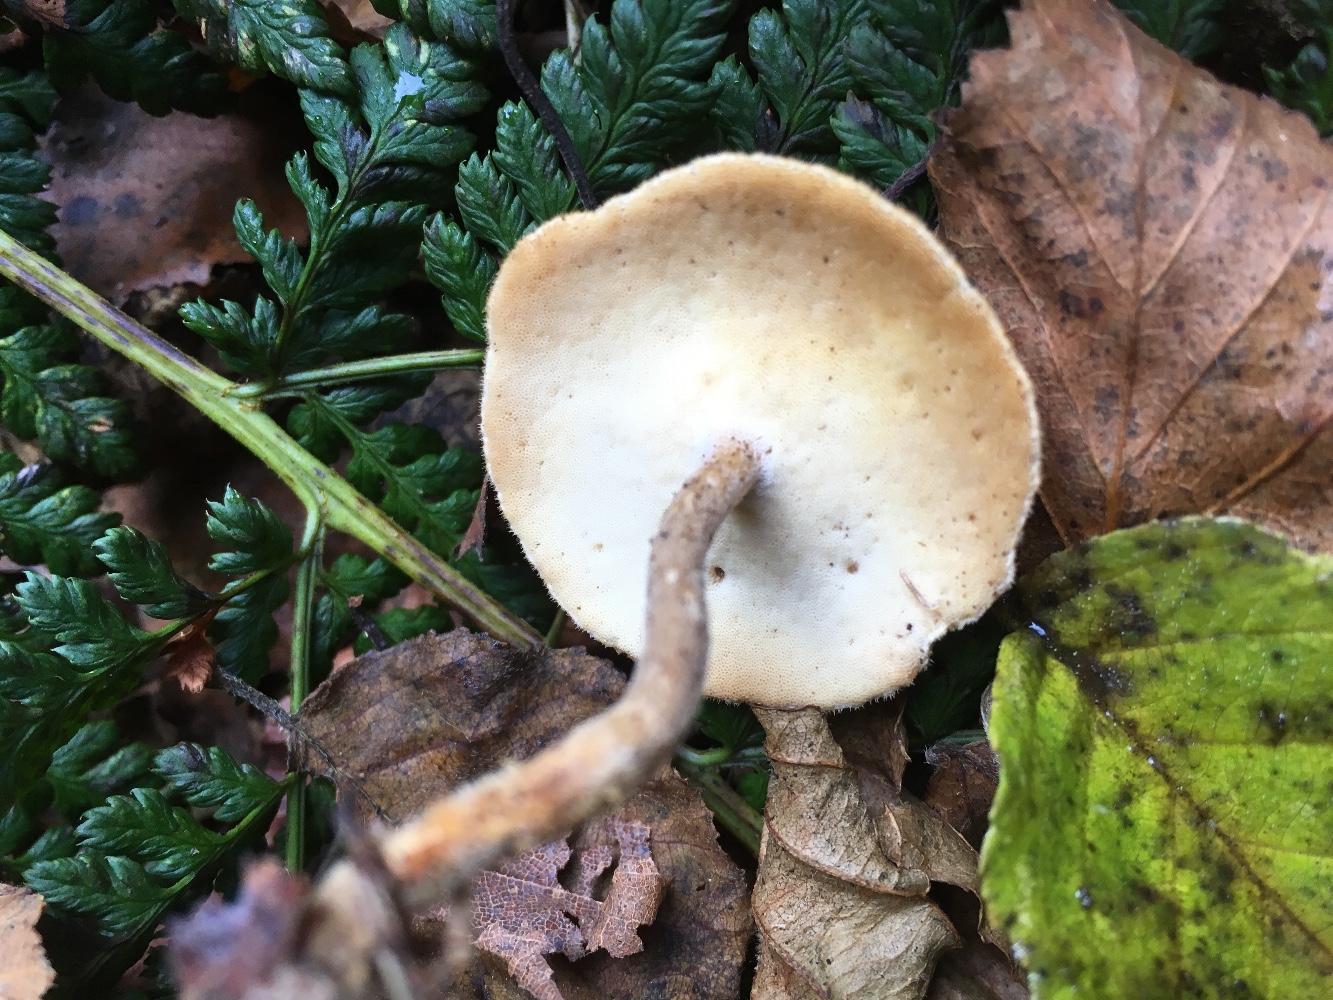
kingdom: Fungi
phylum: Basidiomycota
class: Agaricomycetes
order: Polyporales
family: Polyporaceae
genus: Lentinus
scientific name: Lentinus substrictus
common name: forårs-stilkporesvamp
